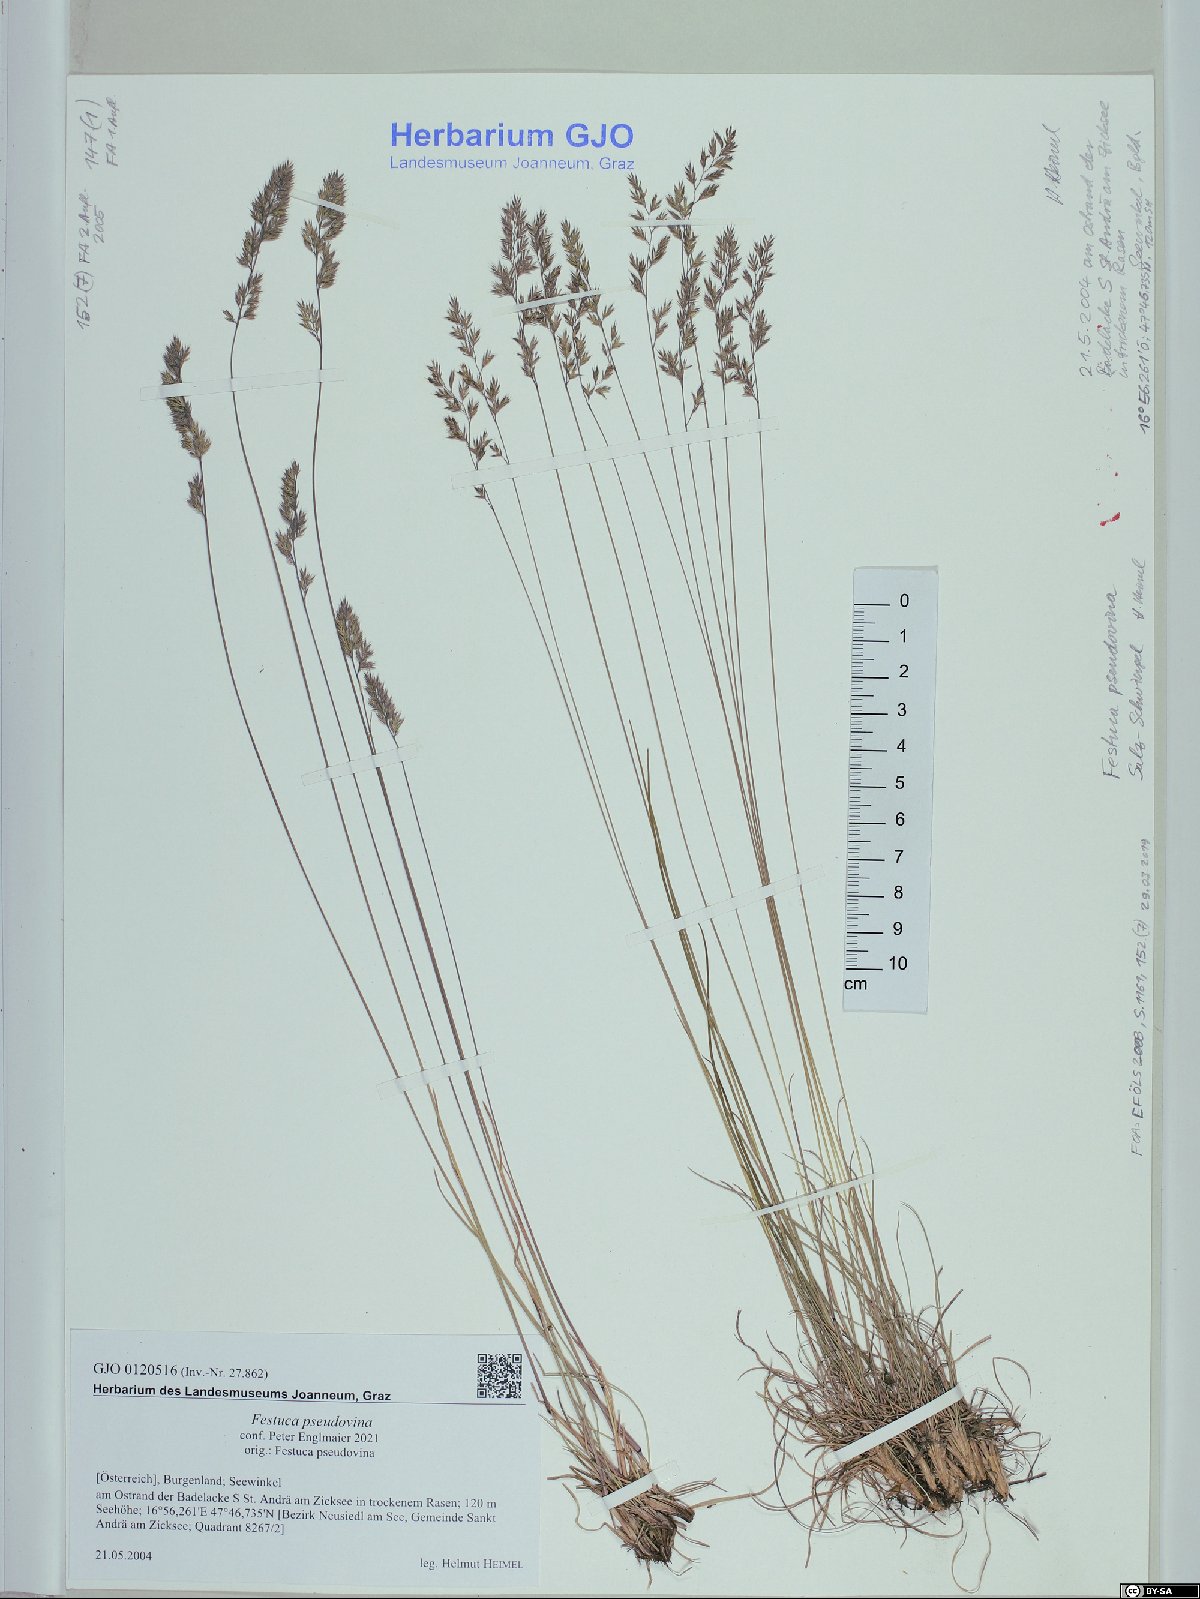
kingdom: Plantae
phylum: Tracheophyta
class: Liliopsida
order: Poales
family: Poaceae
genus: Festuca
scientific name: Festuca pulchra
